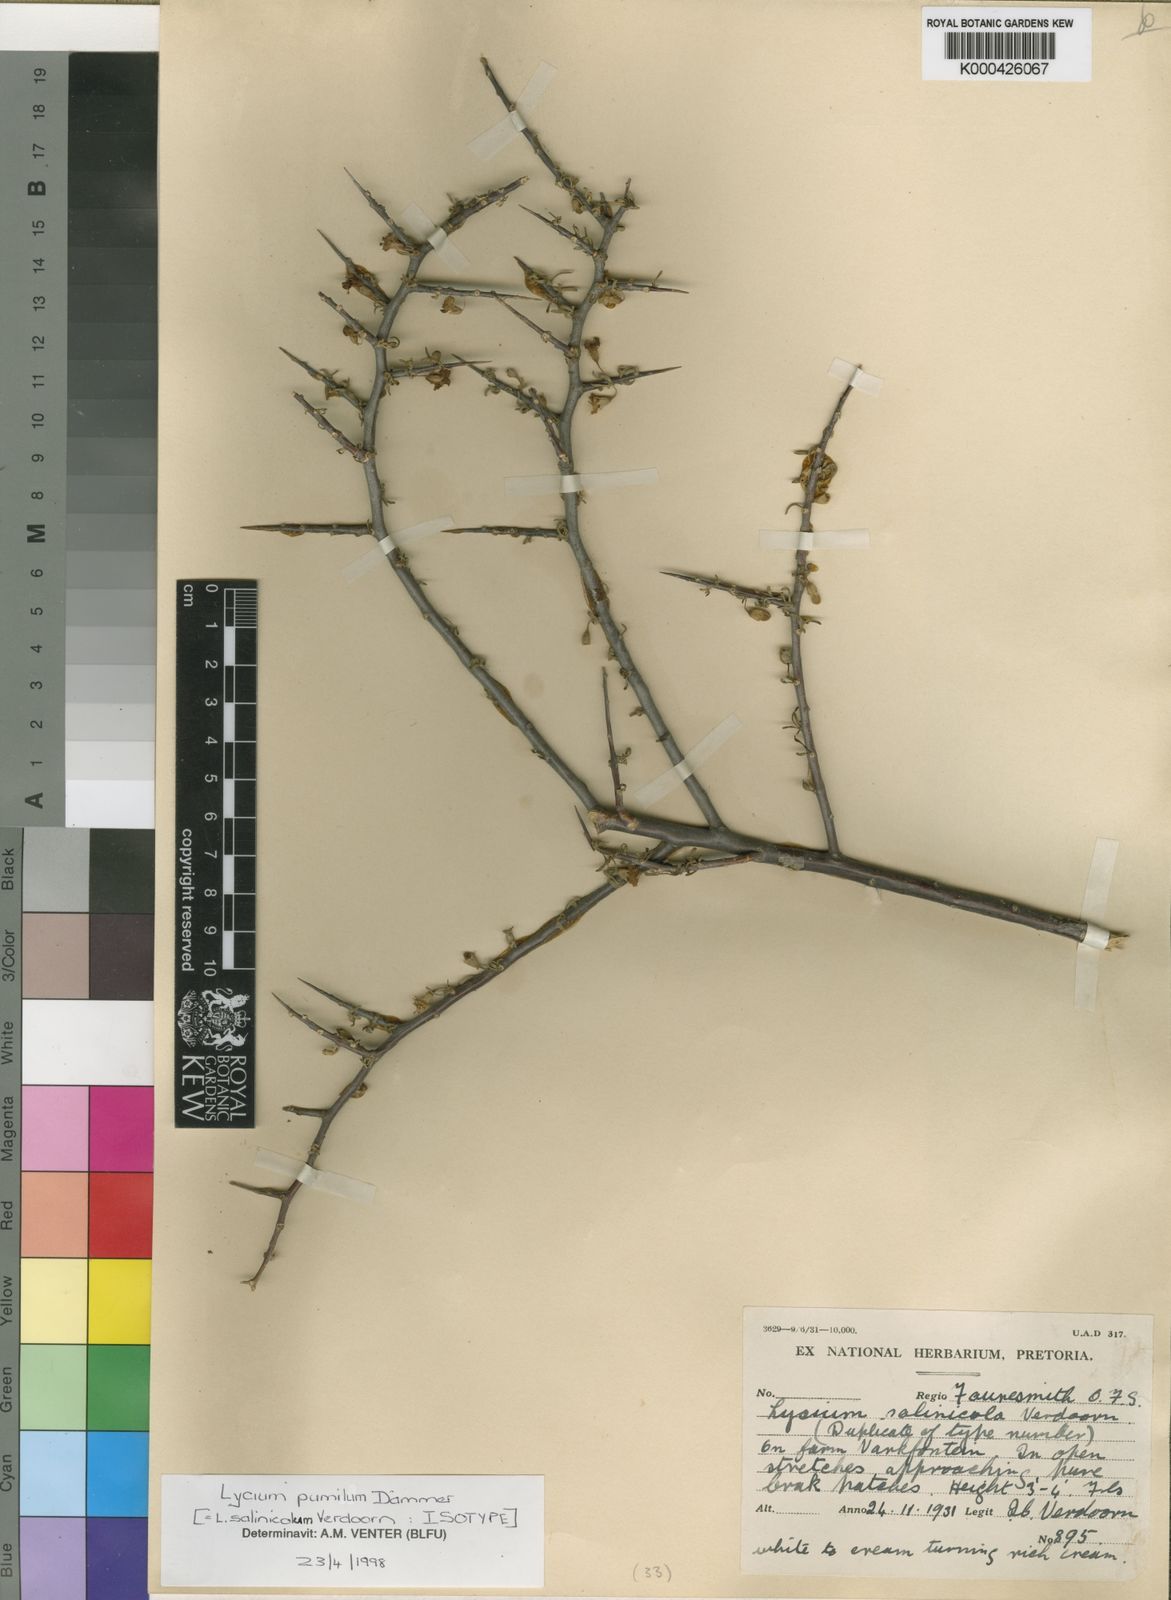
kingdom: Plantae
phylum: Tracheophyta
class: Magnoliopsida
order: Solanales
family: Solanaceae
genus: Lycium
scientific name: Lycium cinereum
